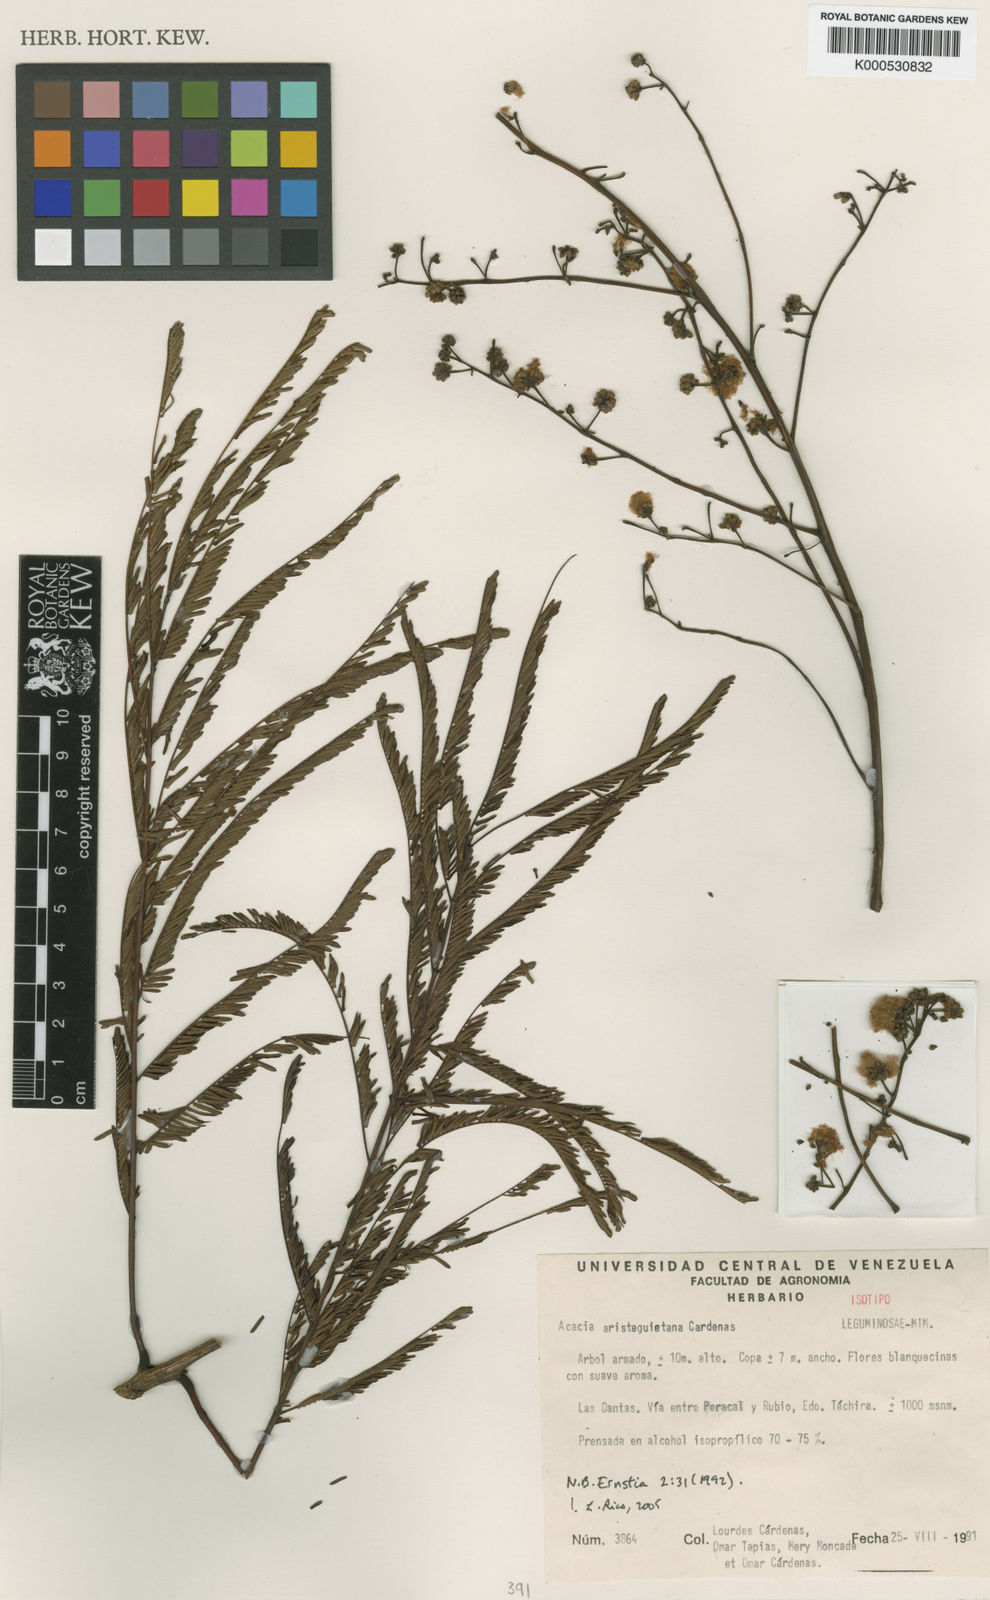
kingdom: Plantae
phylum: Tracheophyta
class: Magnoliopsida
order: Fabales
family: Fabaceae
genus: Acacia
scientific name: Acacia
